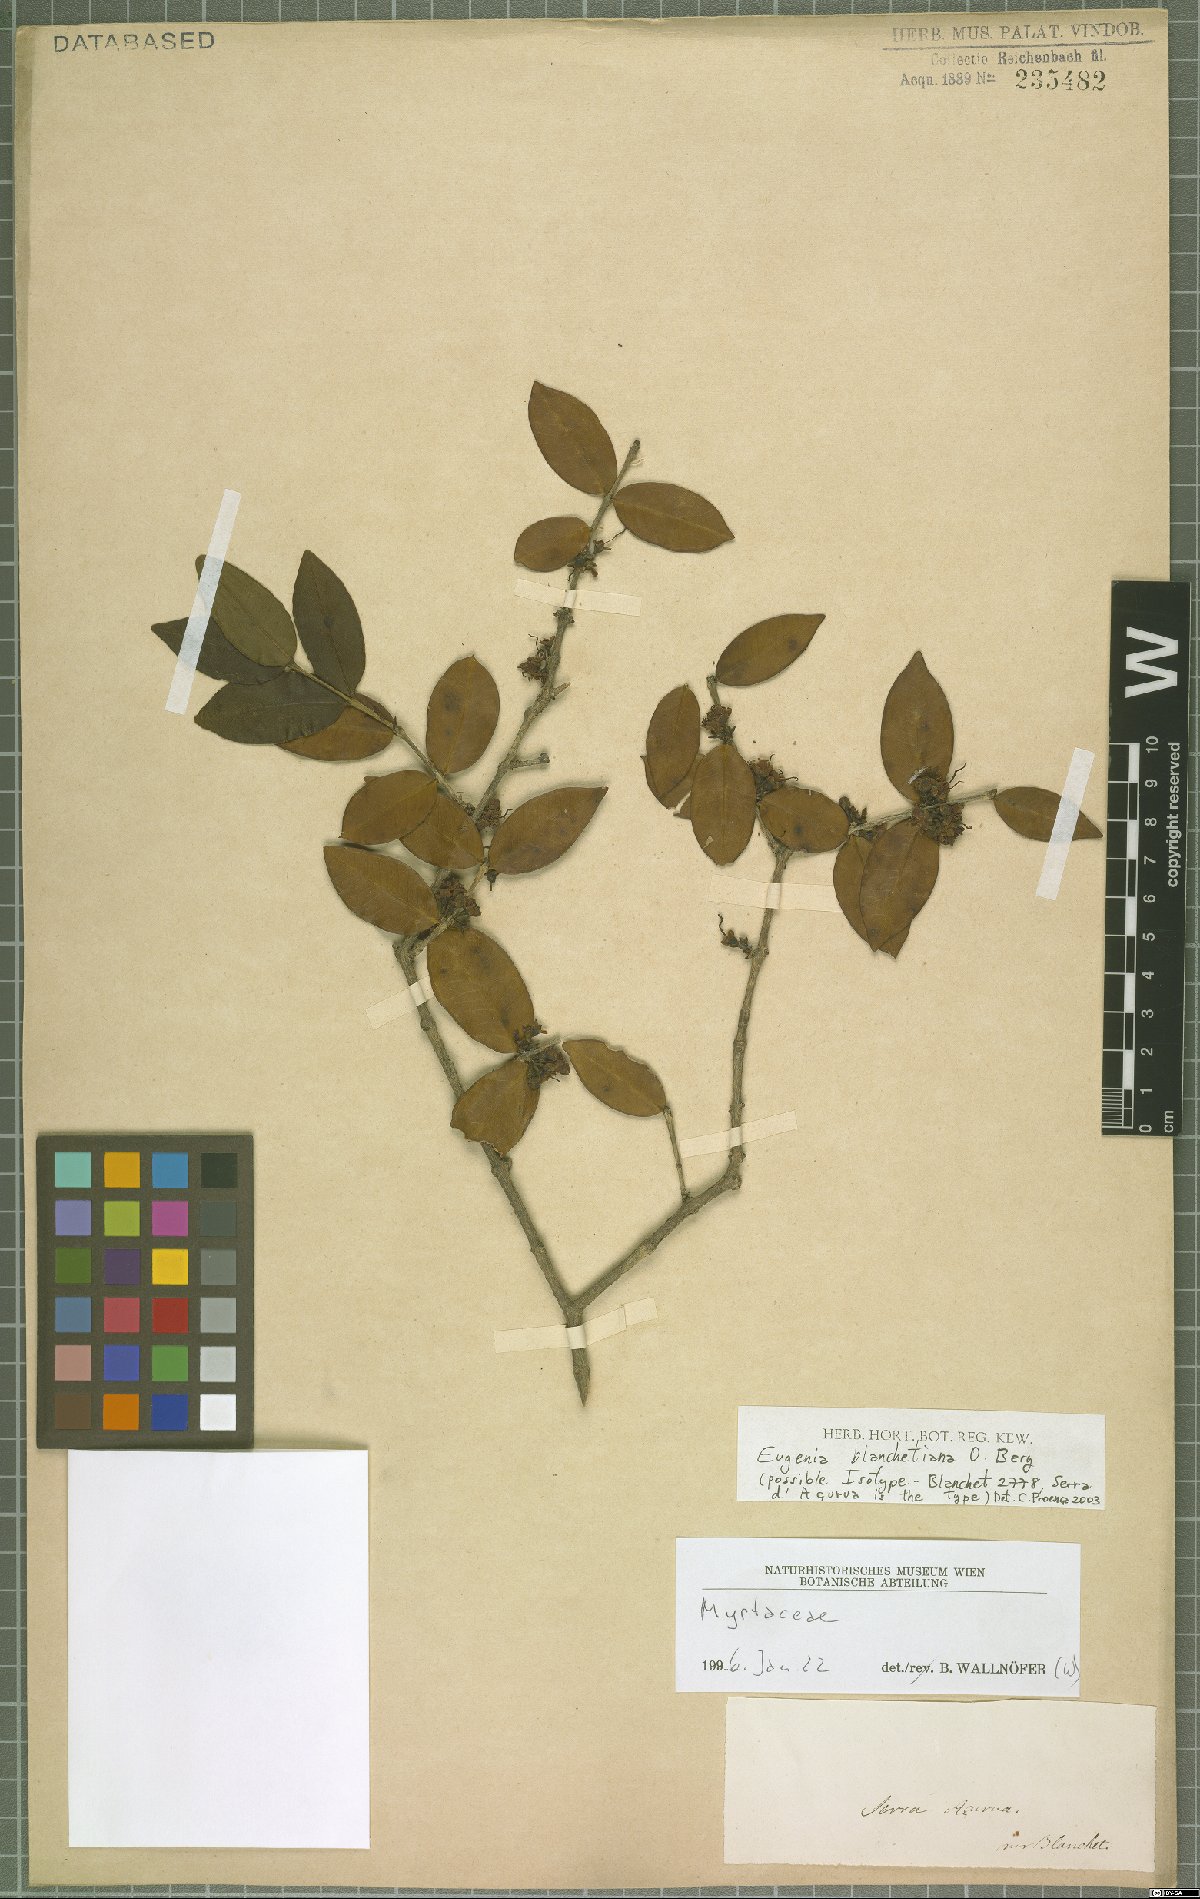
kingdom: Plantae
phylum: Tracheophyta
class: Magnoliopsida
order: Myrtales
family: Myrtaceae
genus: Eugenia
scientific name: Eugenia blanchetiana
